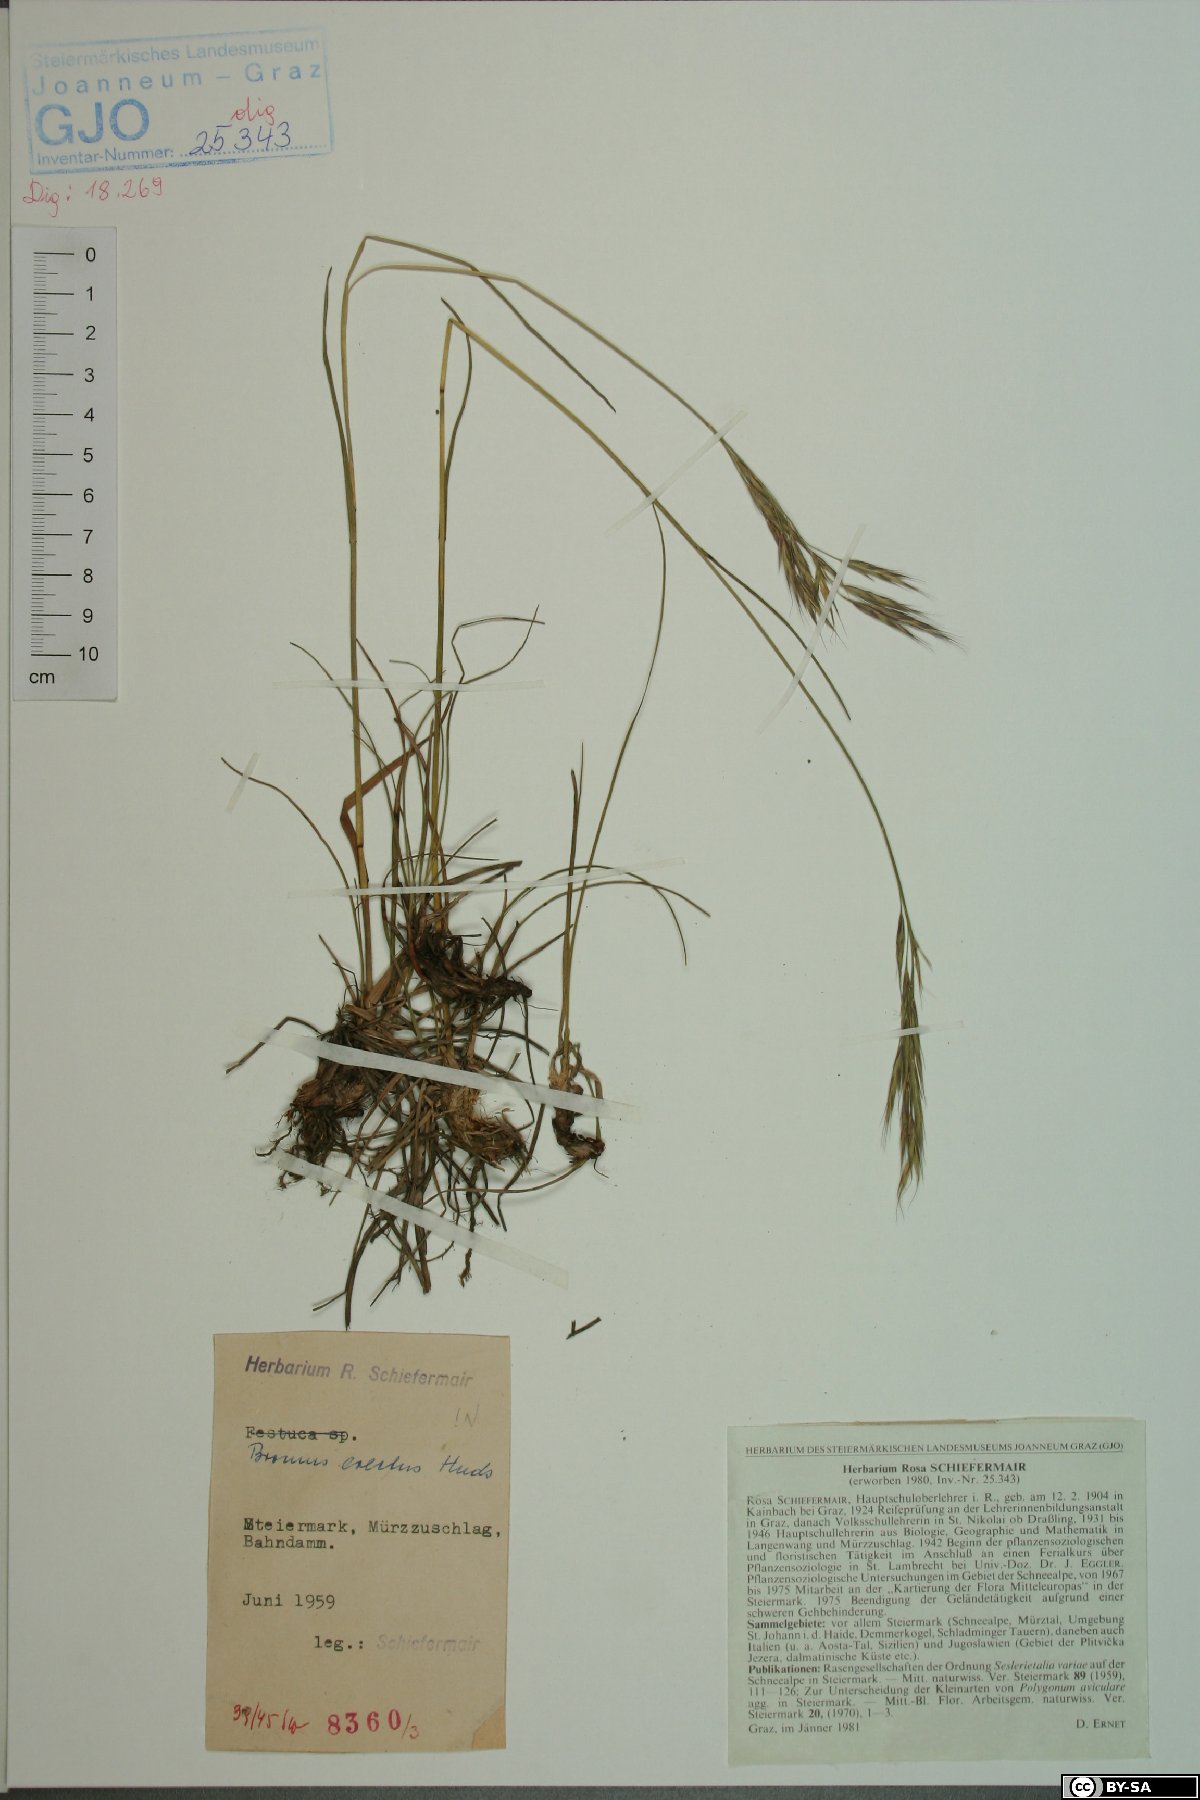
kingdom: Plantae
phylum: Tracheophyta
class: Liliopsida
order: Poales
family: Poaceae
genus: Bromus
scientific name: Bromus erectus
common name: Erect brome
